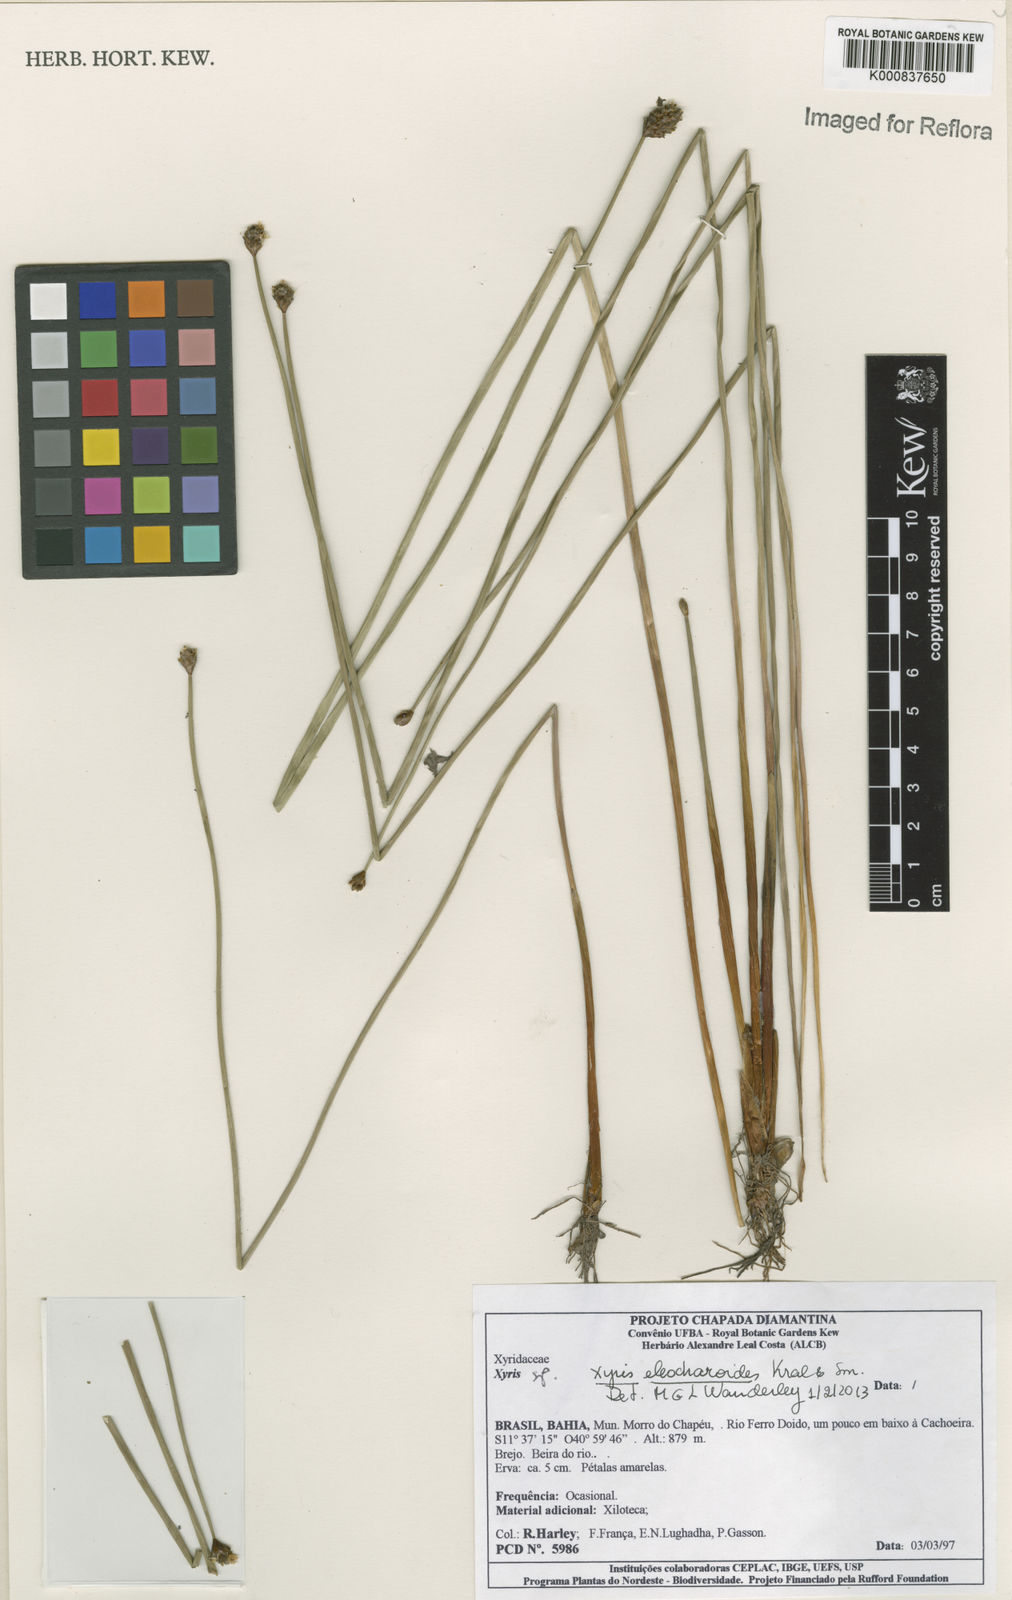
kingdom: Plantae
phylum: Tracheophyta
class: Liliopsida
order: Poales
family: Xyridaceae
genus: Xyris
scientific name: Xyris eleocharoides
